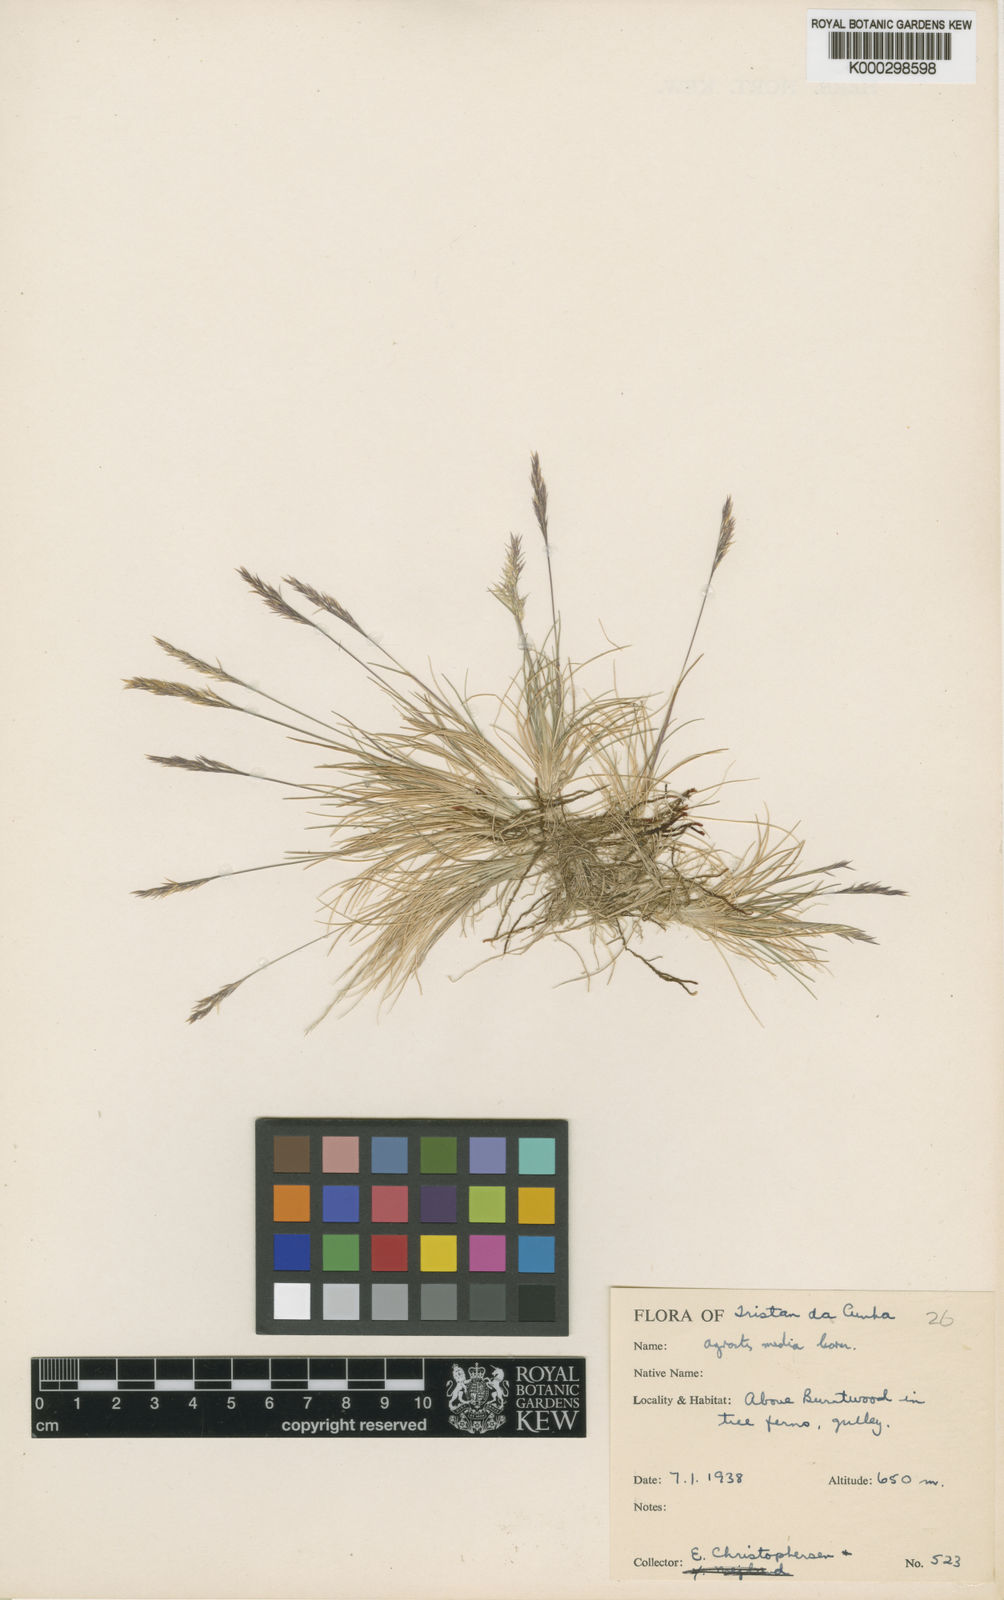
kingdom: Plantae
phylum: Tracheophyta
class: Liliopsida
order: Poales
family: Poaceae
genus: Agrostis
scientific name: Agrostis media
